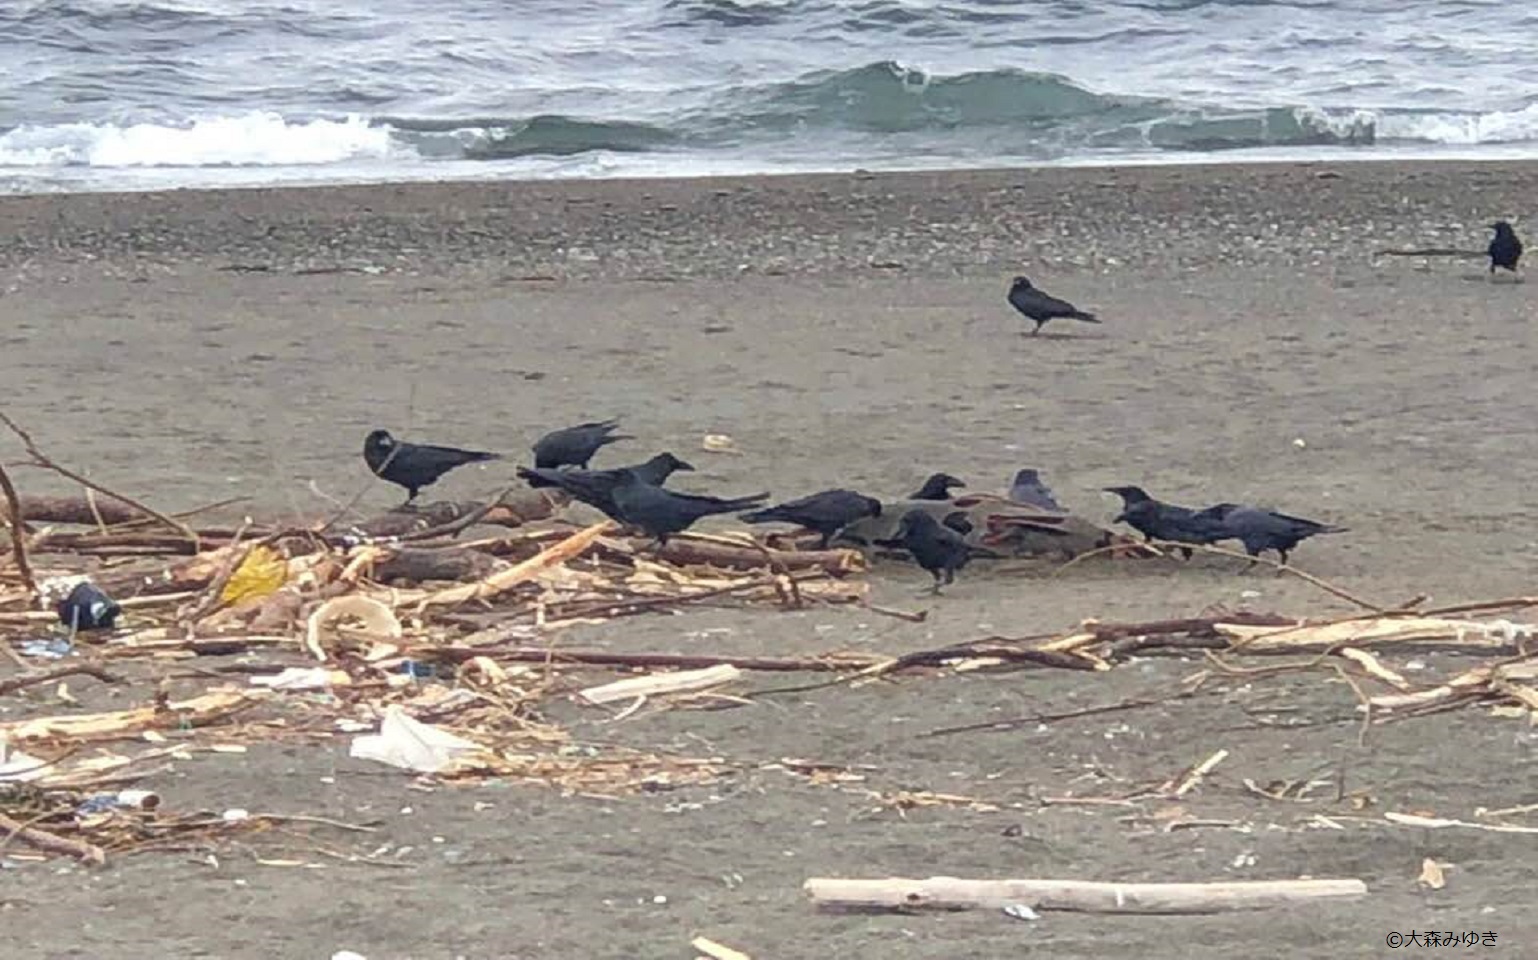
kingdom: Animalia
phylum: Chordata
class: Mammalia
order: Cetacea
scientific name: Cetacea
